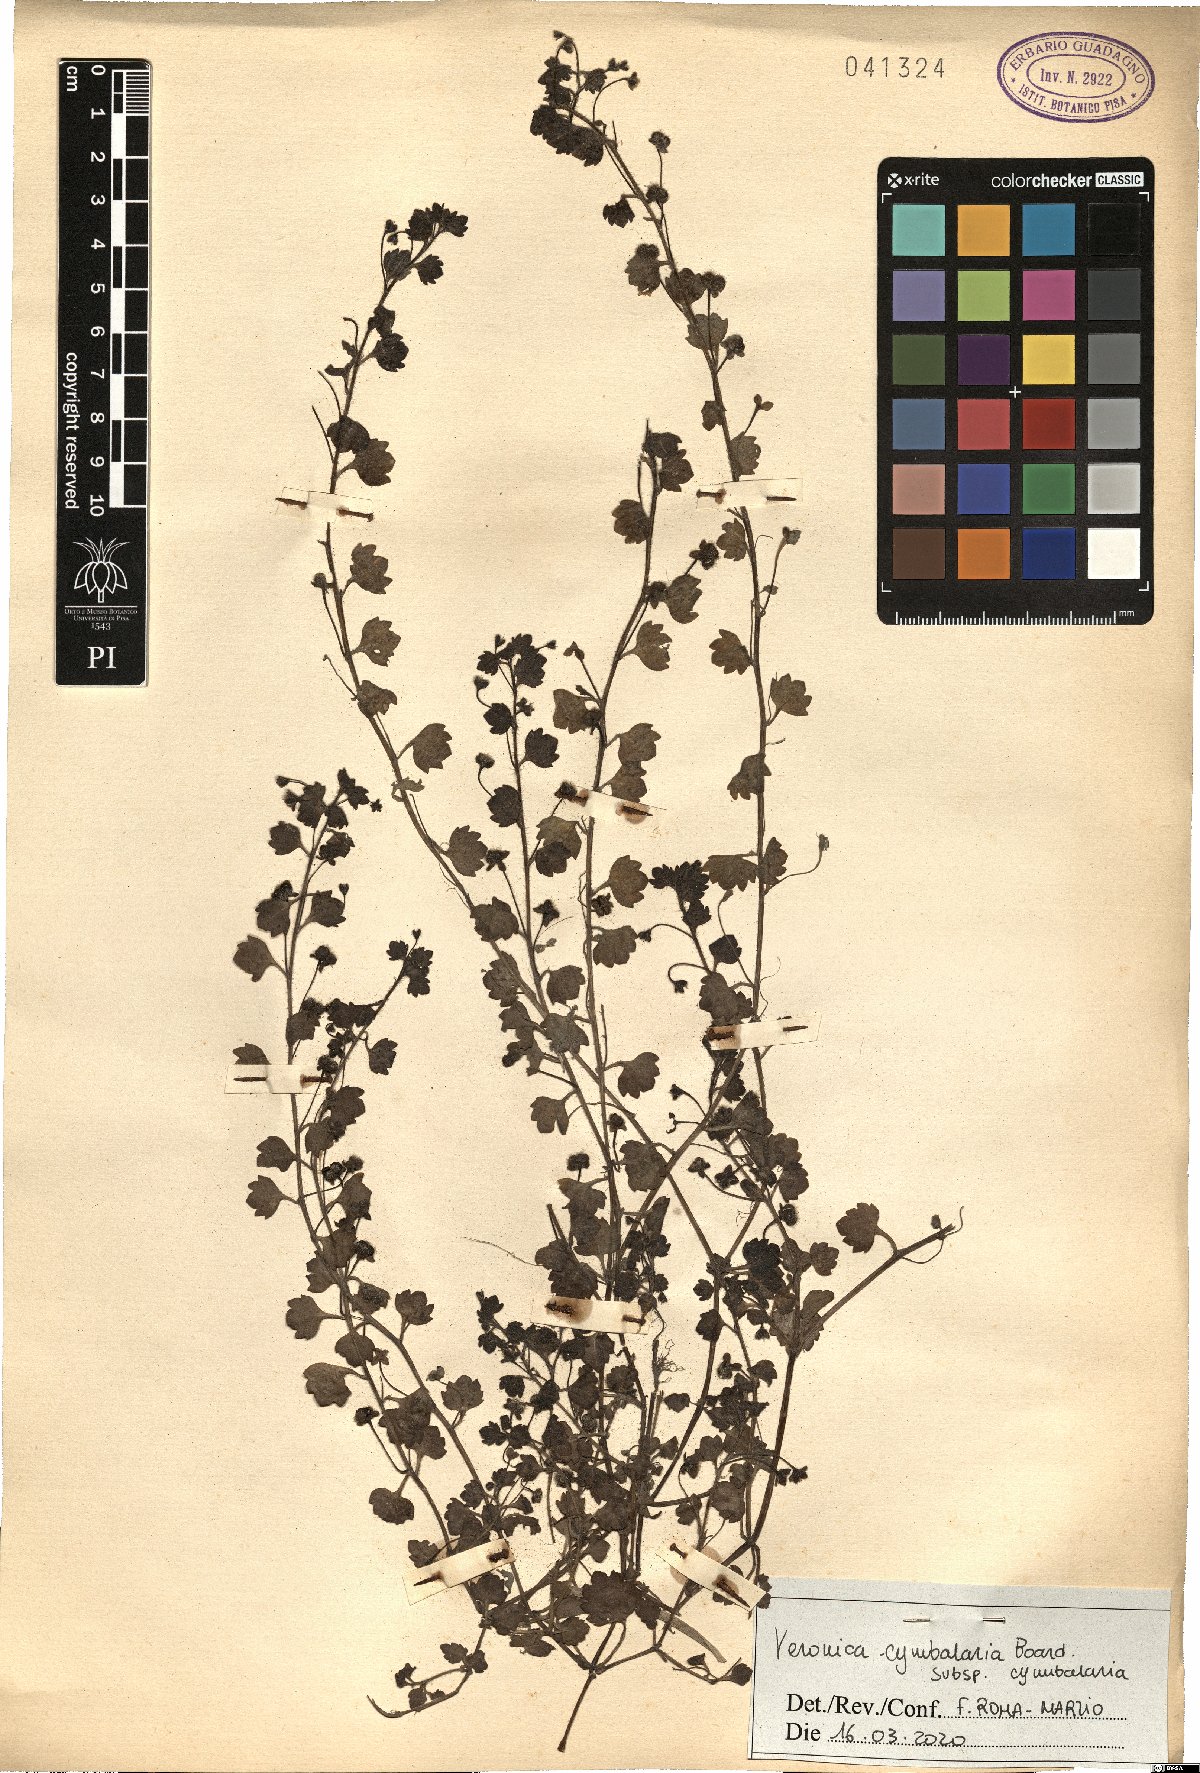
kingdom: Plantae
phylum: Tracheophyta
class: Magnoliopsida
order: Lamiales
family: Plantaginaceae
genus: Veronica
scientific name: Veronica cymbalaria
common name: Pale speedwell
